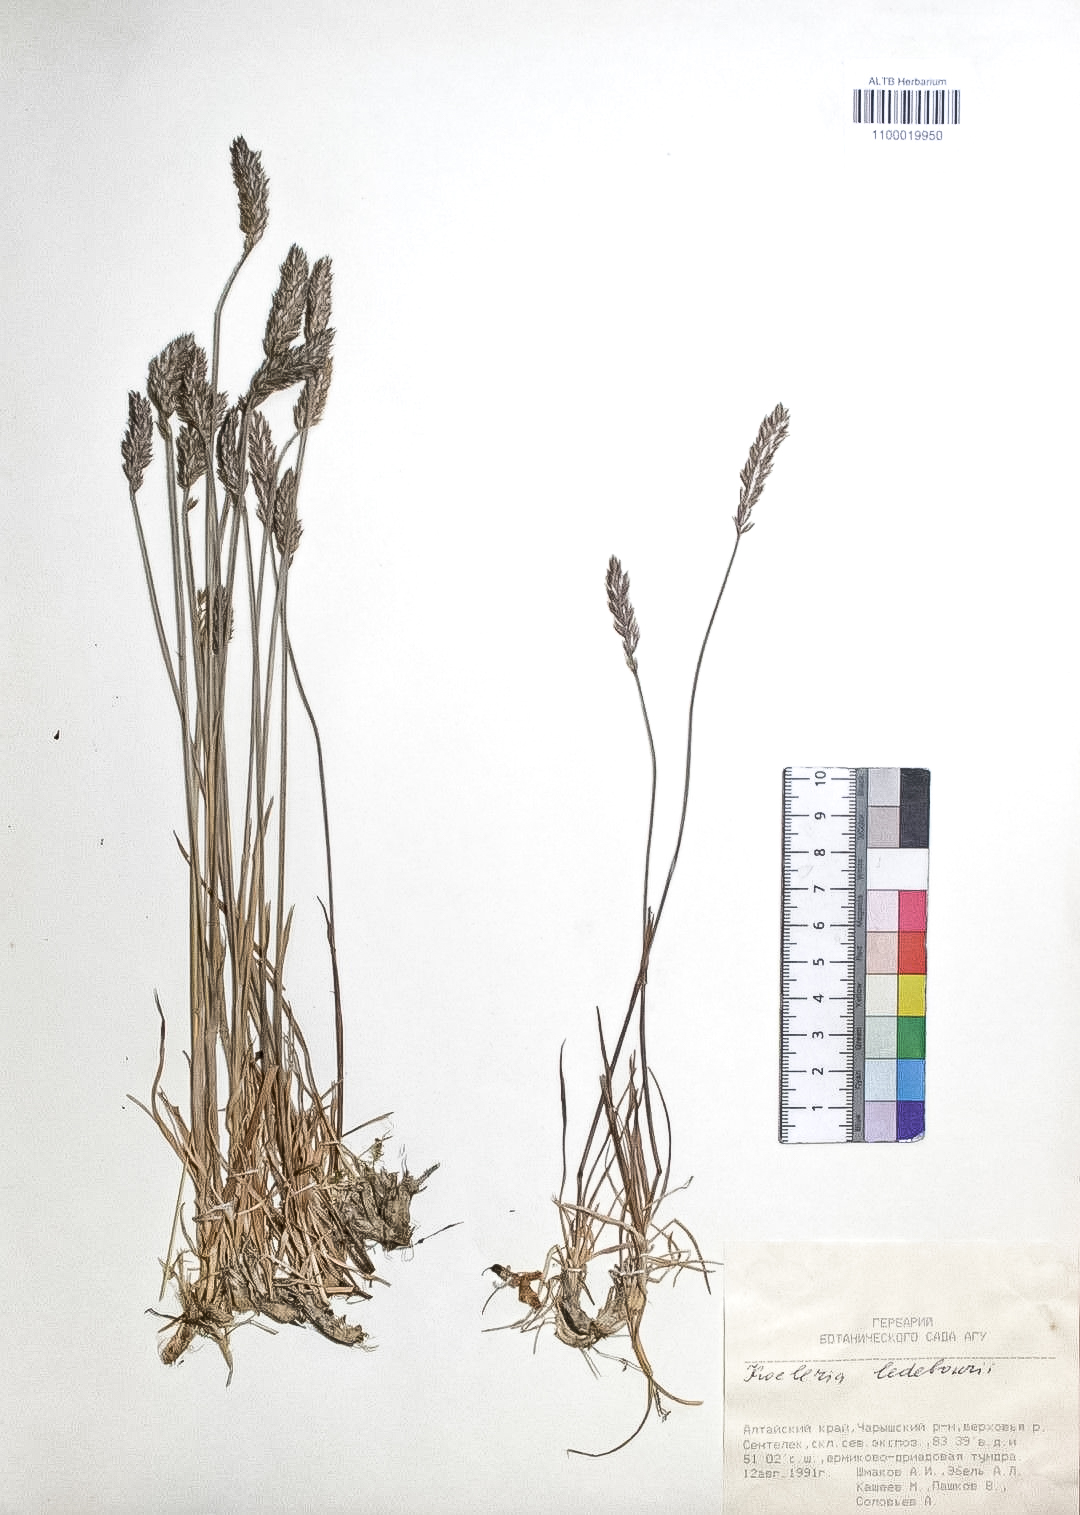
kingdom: Plantae
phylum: Tracheophyta
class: Liliopsida
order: Poales
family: Poaceae
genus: Koeleria
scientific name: Koeleria asiatica
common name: Eurasian junegrass
